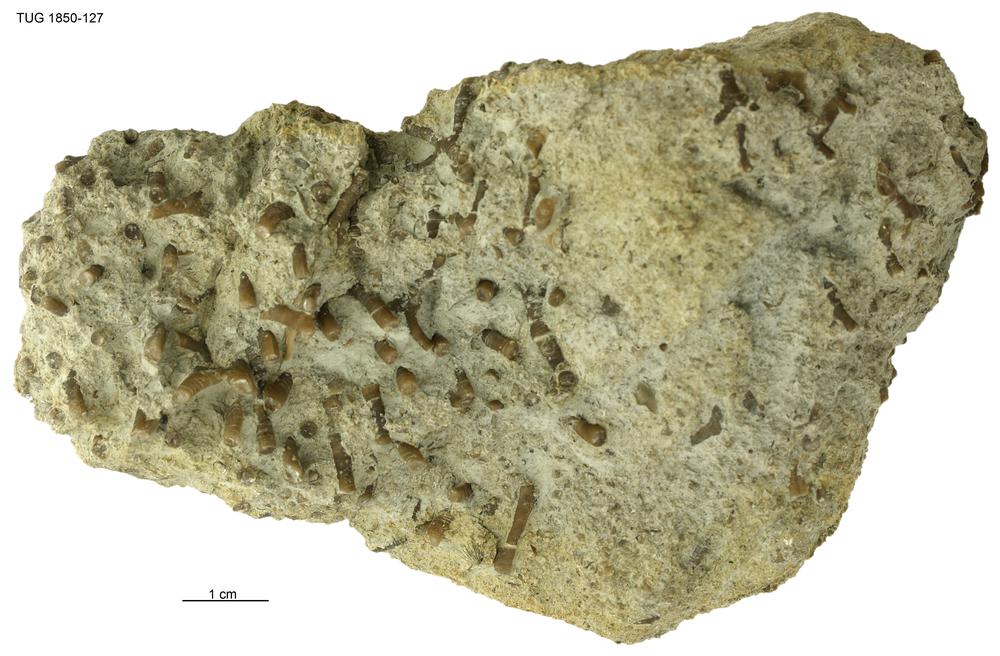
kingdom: Animalia
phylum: Bryozoa
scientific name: Bryozoa
